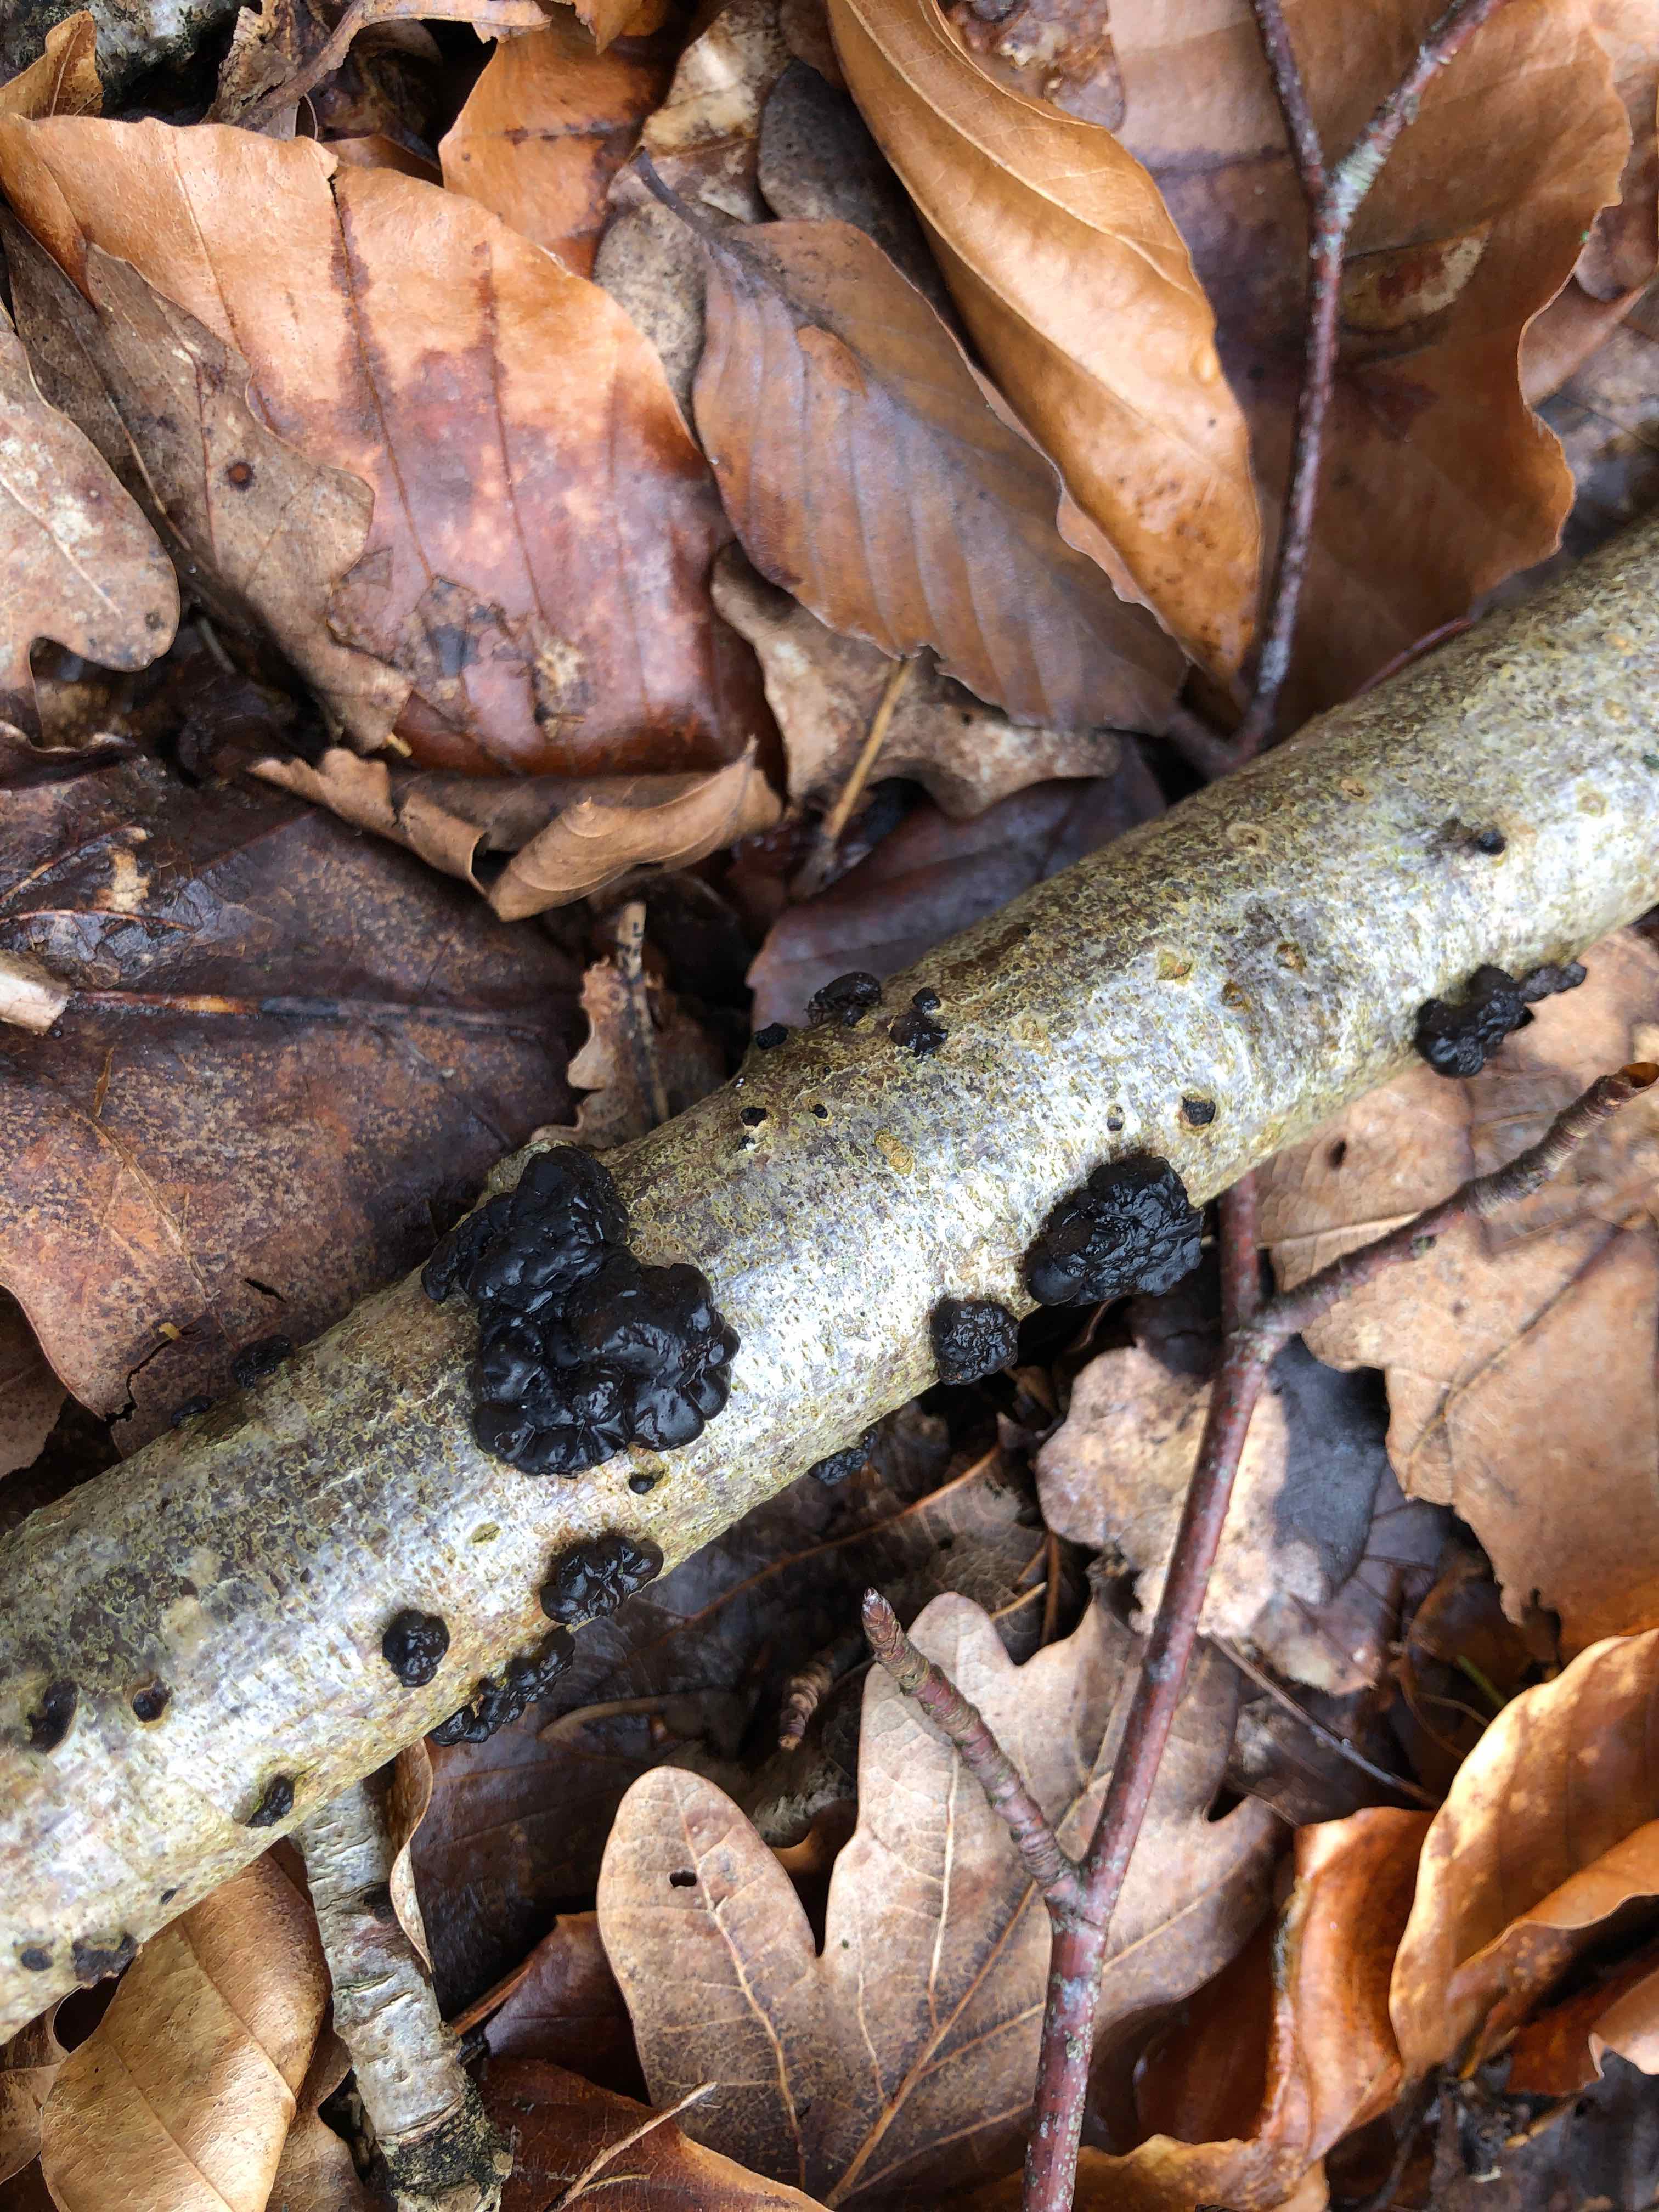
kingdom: Fungi
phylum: Basidiomycota
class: Agaricomycetes
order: Auriculariales
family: Auriculariaceae
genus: Exidia
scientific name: Exidia nigricans
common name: almindelig bævretop
